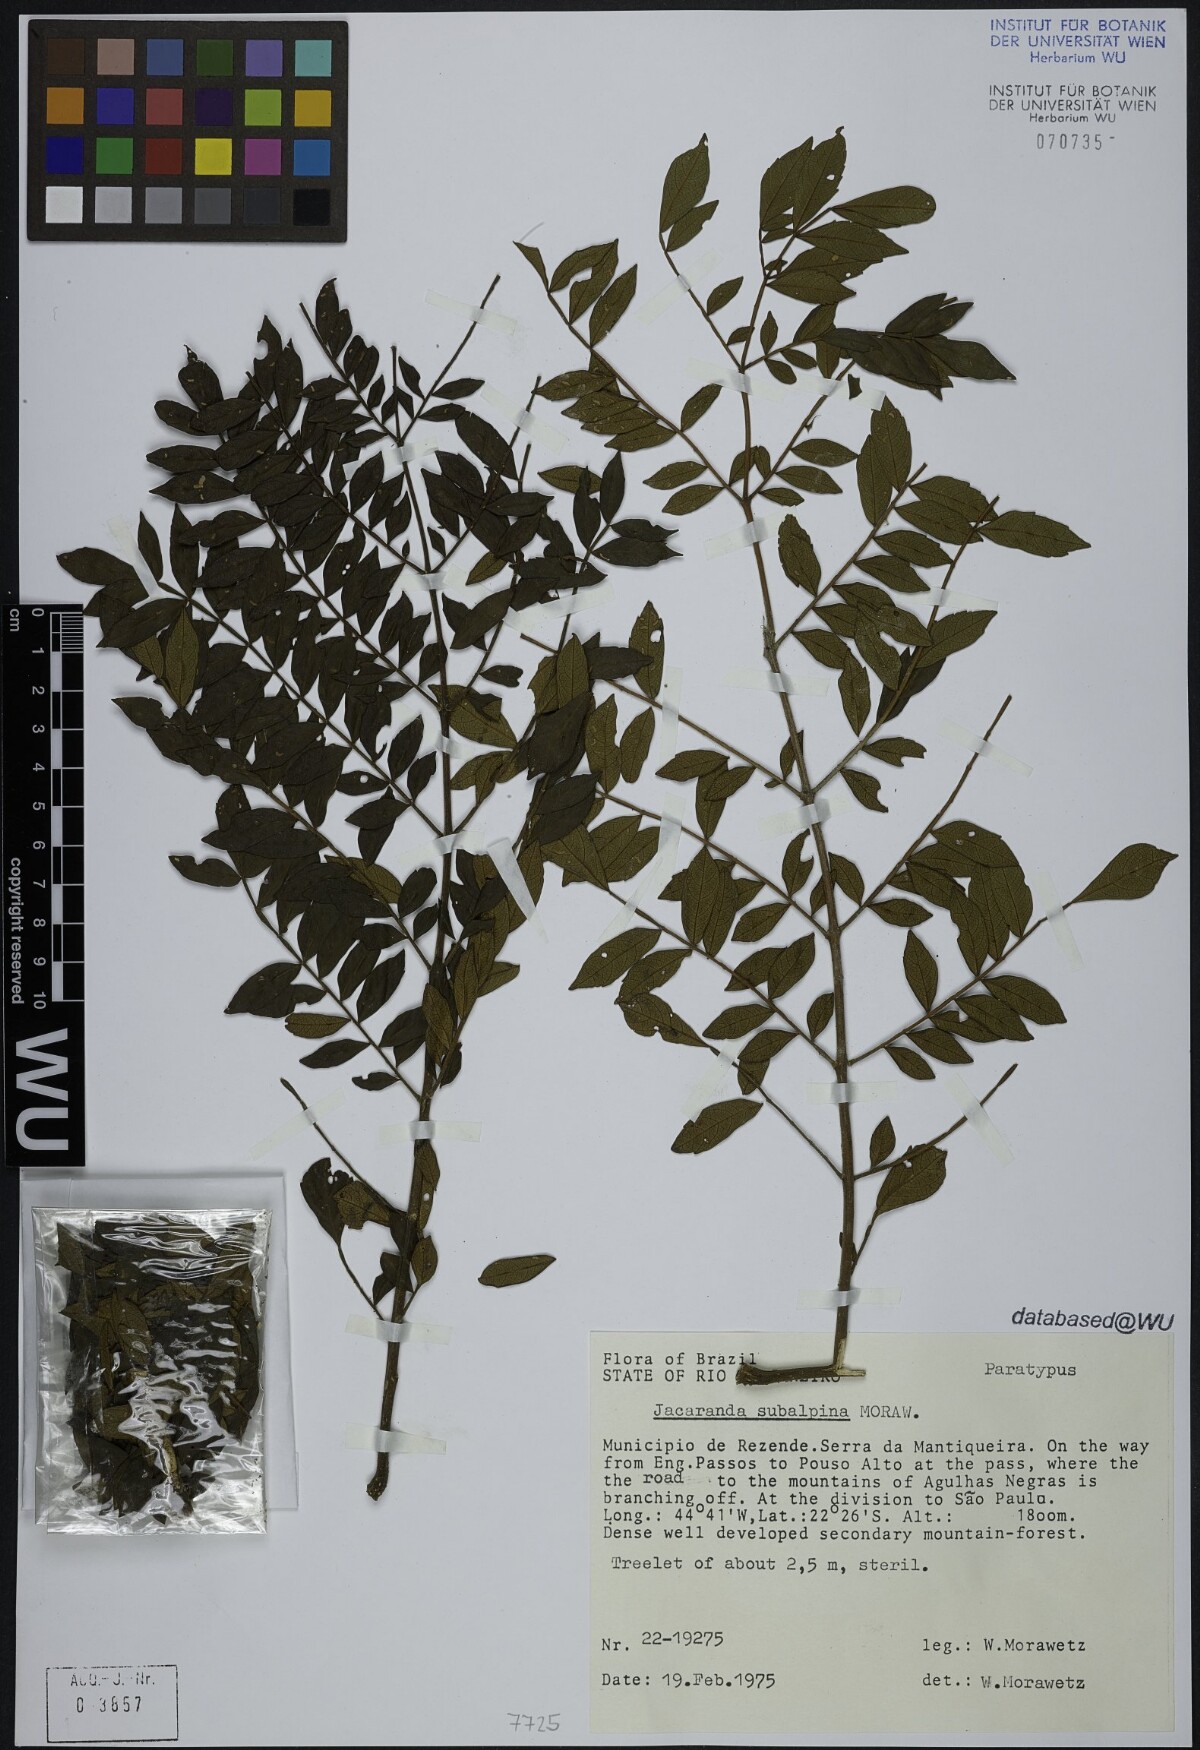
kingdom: Plantae
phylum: Tracheophyta
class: Magnoliopsida
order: Lamiales
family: Bignoniaceae
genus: Jacaranda
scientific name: Jacaranda subalpina
